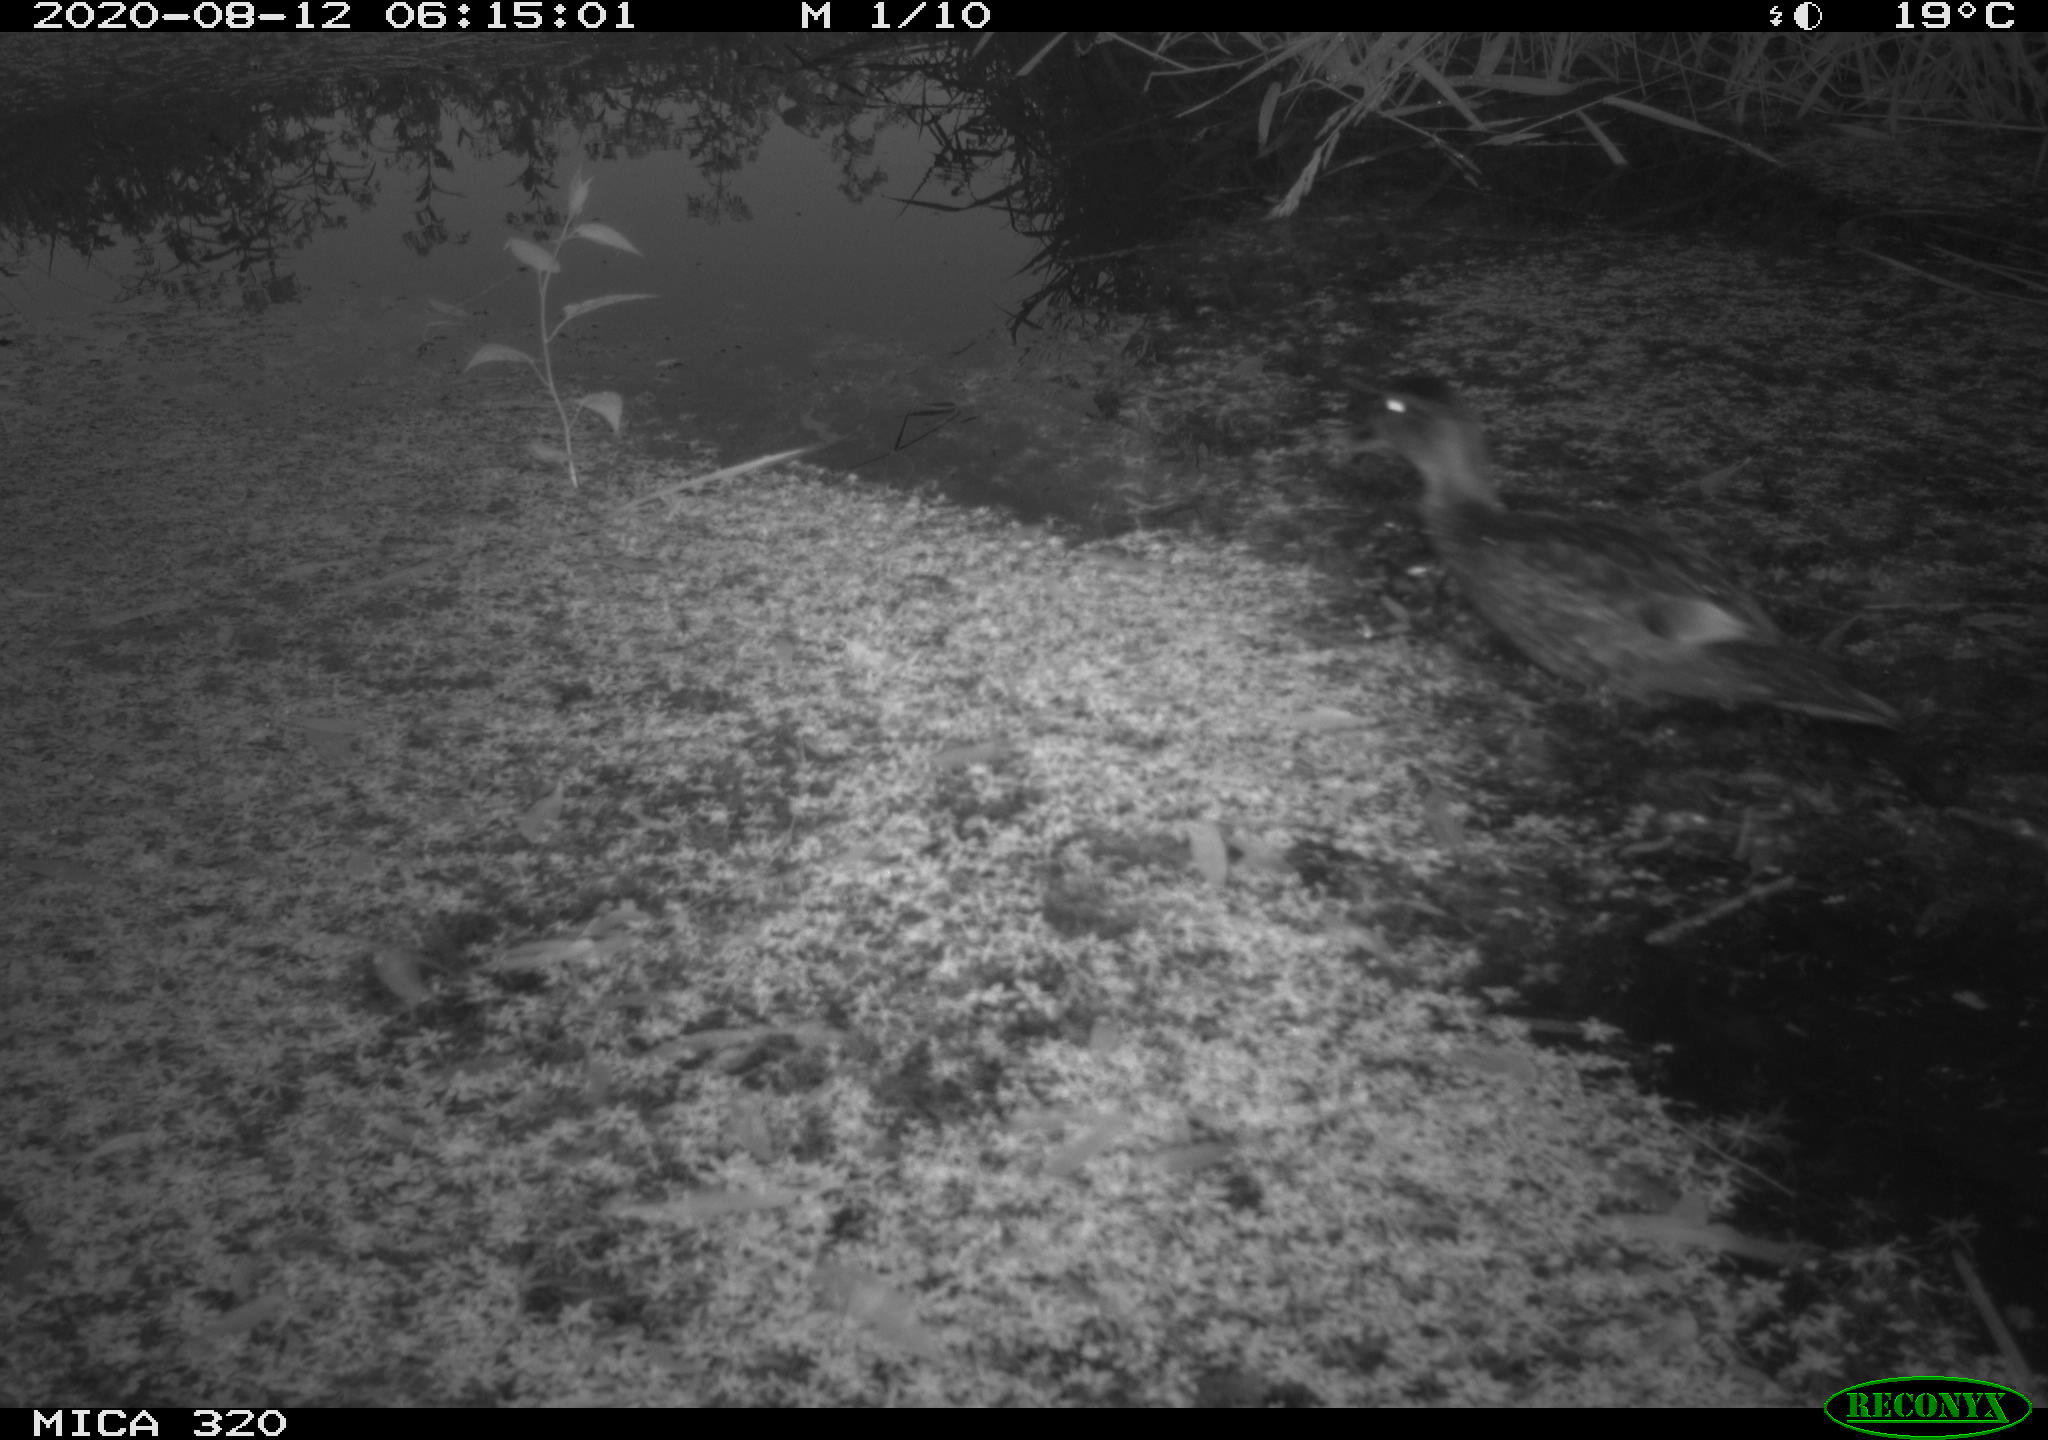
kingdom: Animalia
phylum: Chordata
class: Aves
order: Anseriformes
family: Anatidae
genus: Anas
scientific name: Anas platyrhynchos
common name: Mallard
